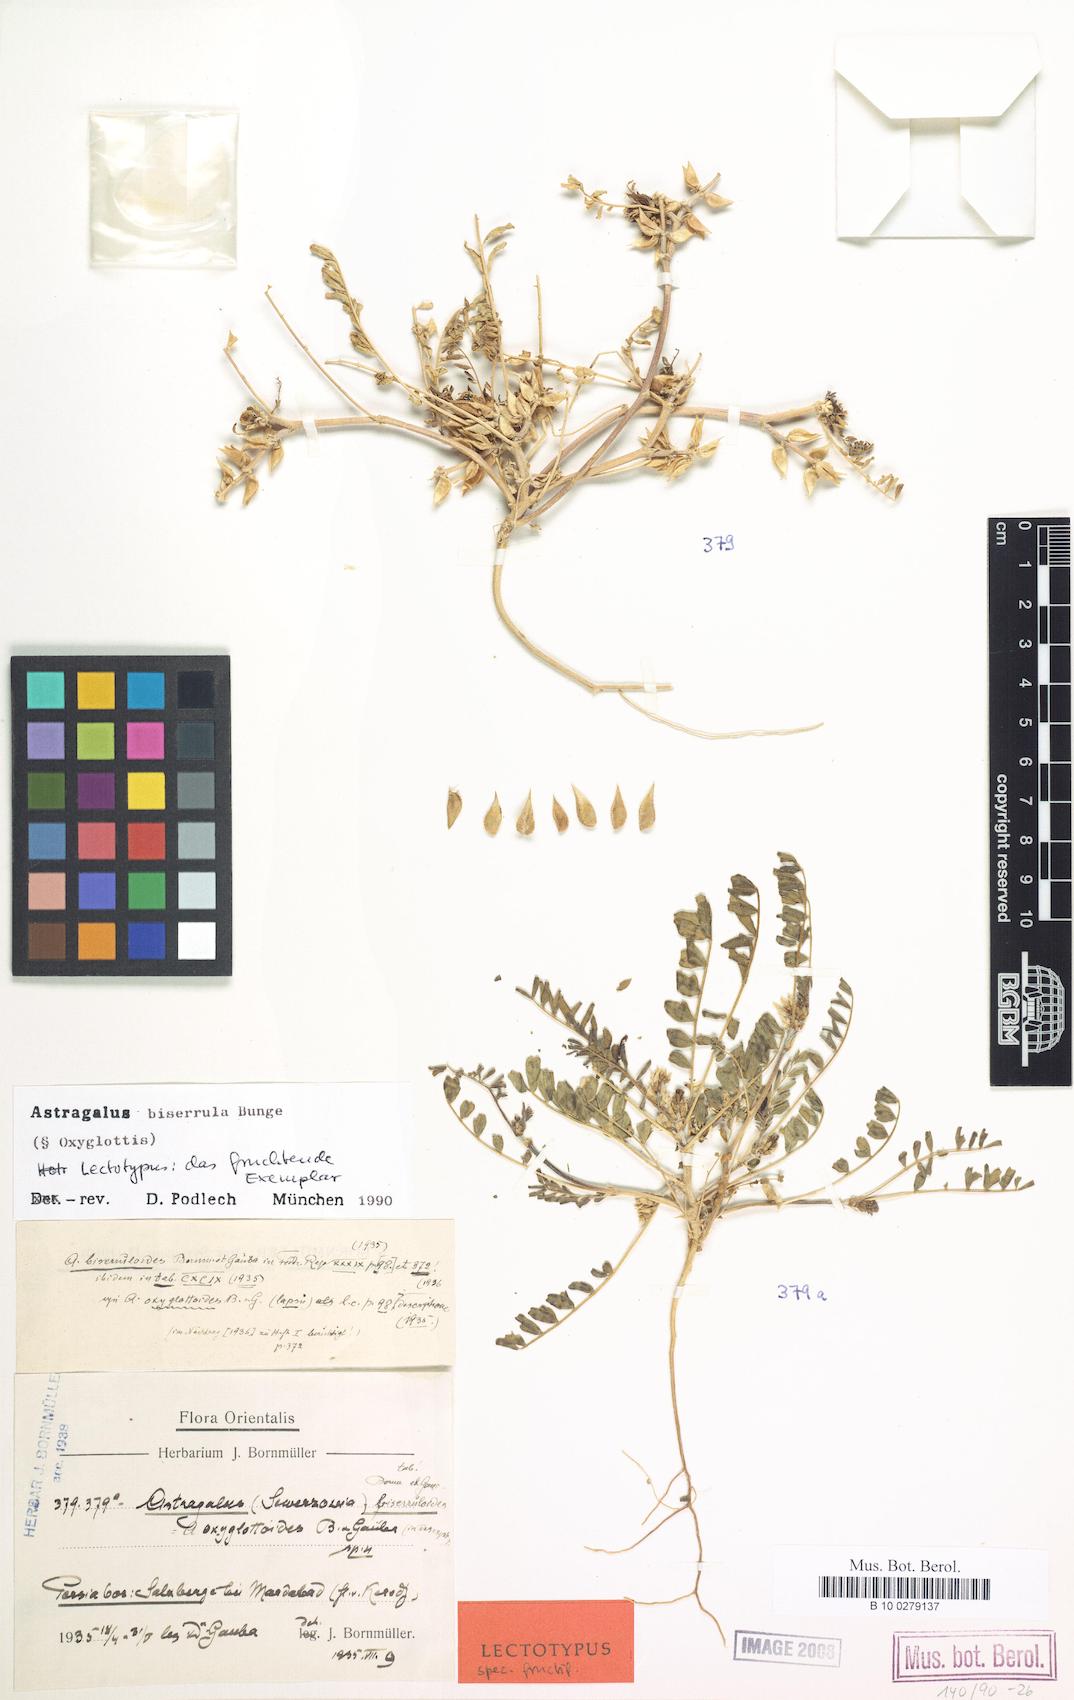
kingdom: Plantae
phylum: Tracheophyta
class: Magnoliopsida
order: Fabales
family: Fabaceae
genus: Astragalus
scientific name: Astragalus biserrula
